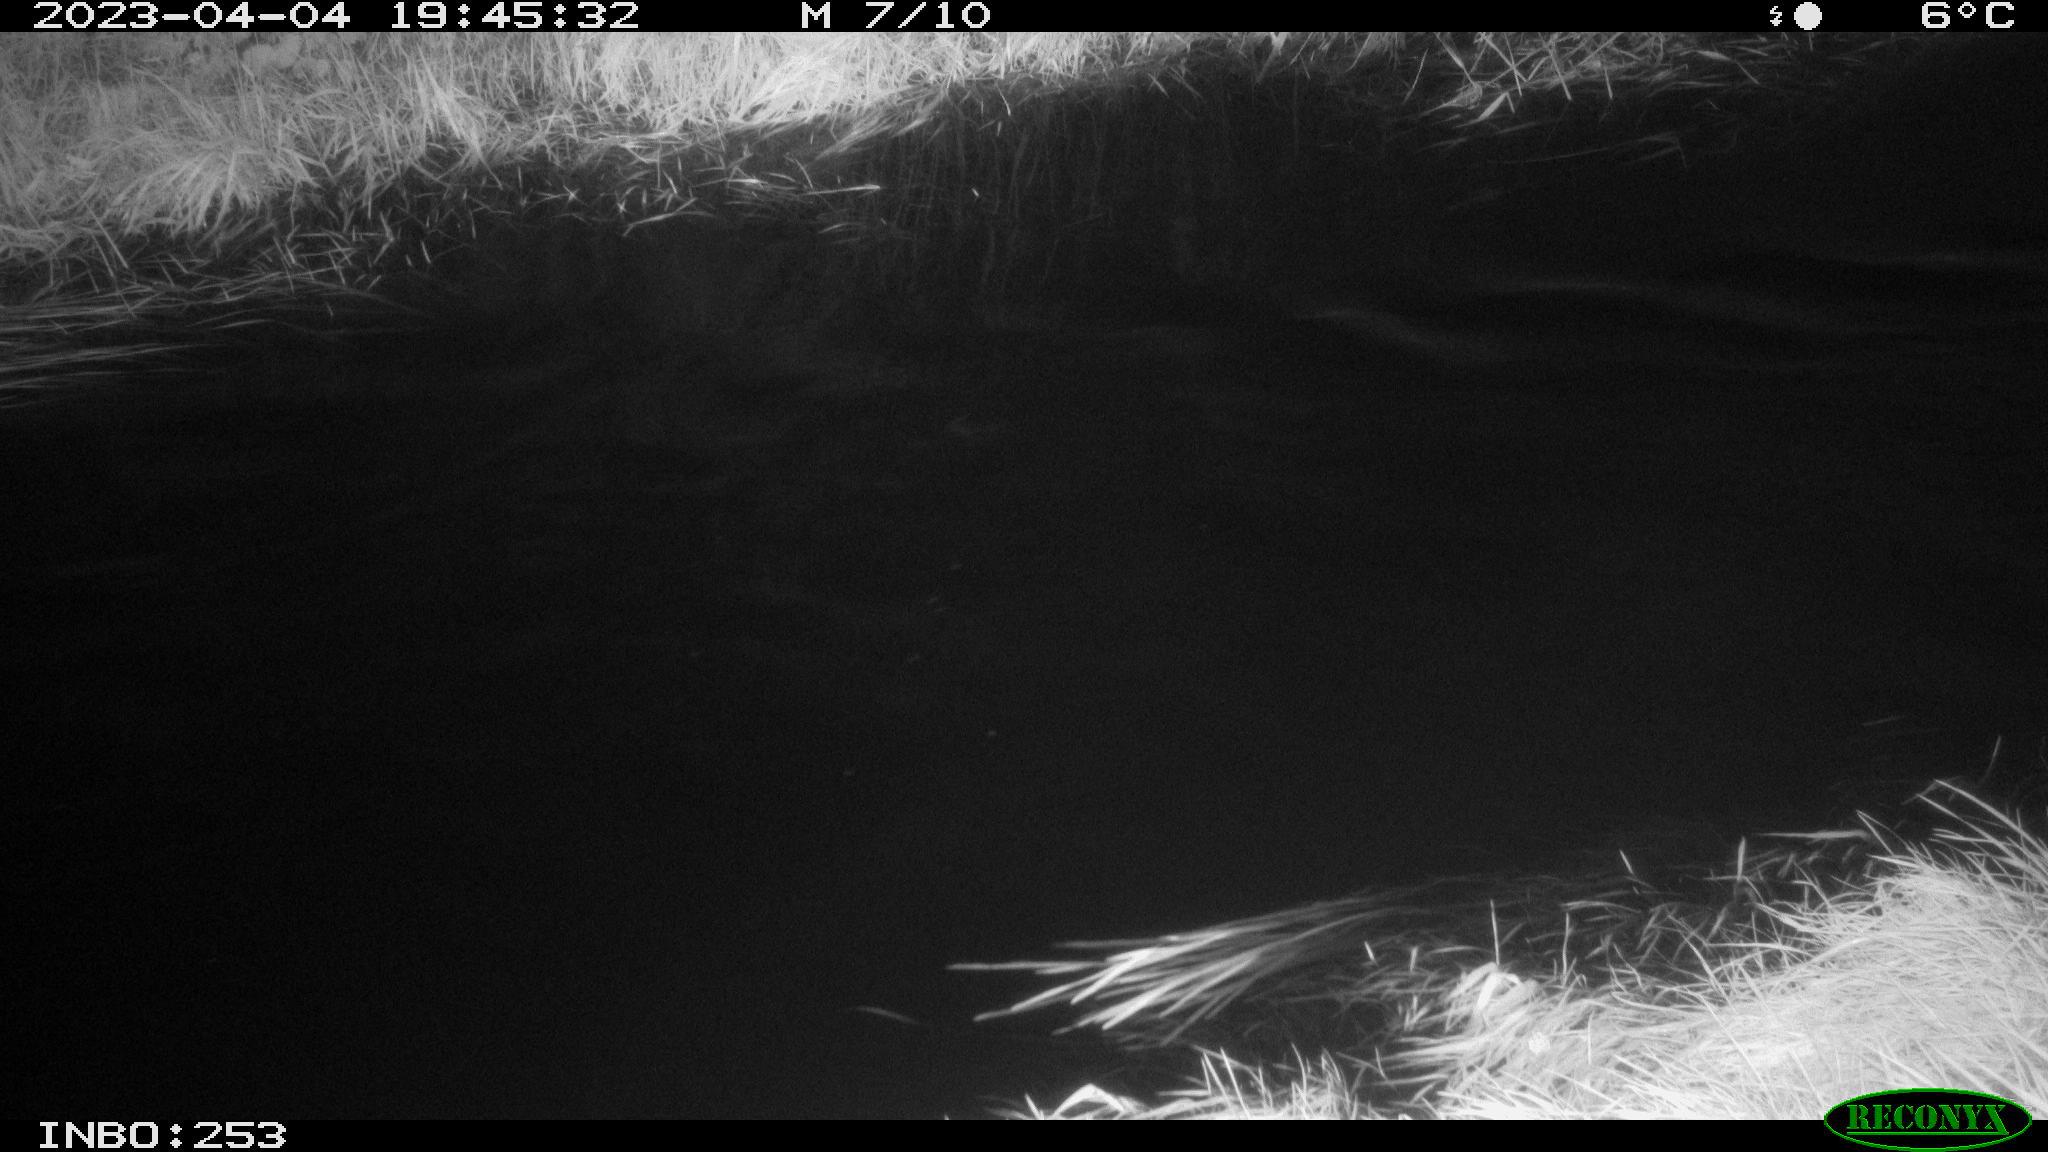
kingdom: Animalia
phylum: Chordata
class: Aves
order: Anseriformes
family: Anatidae
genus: Anas
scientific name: Anas
